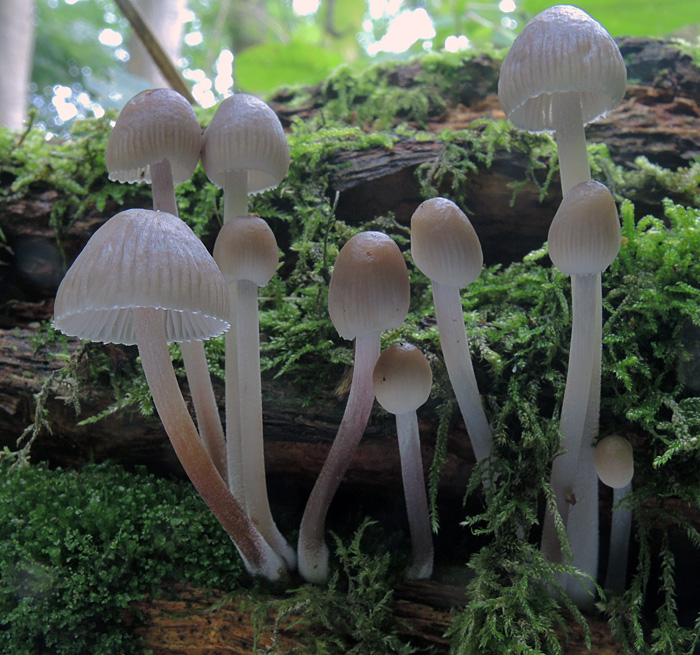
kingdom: Fungi
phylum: Basidiomycota
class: Agaricomycetes
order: Agaricales
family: Mycenaceae
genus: Mycena
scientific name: Mycena inclinata
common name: nikkende huesvamp
